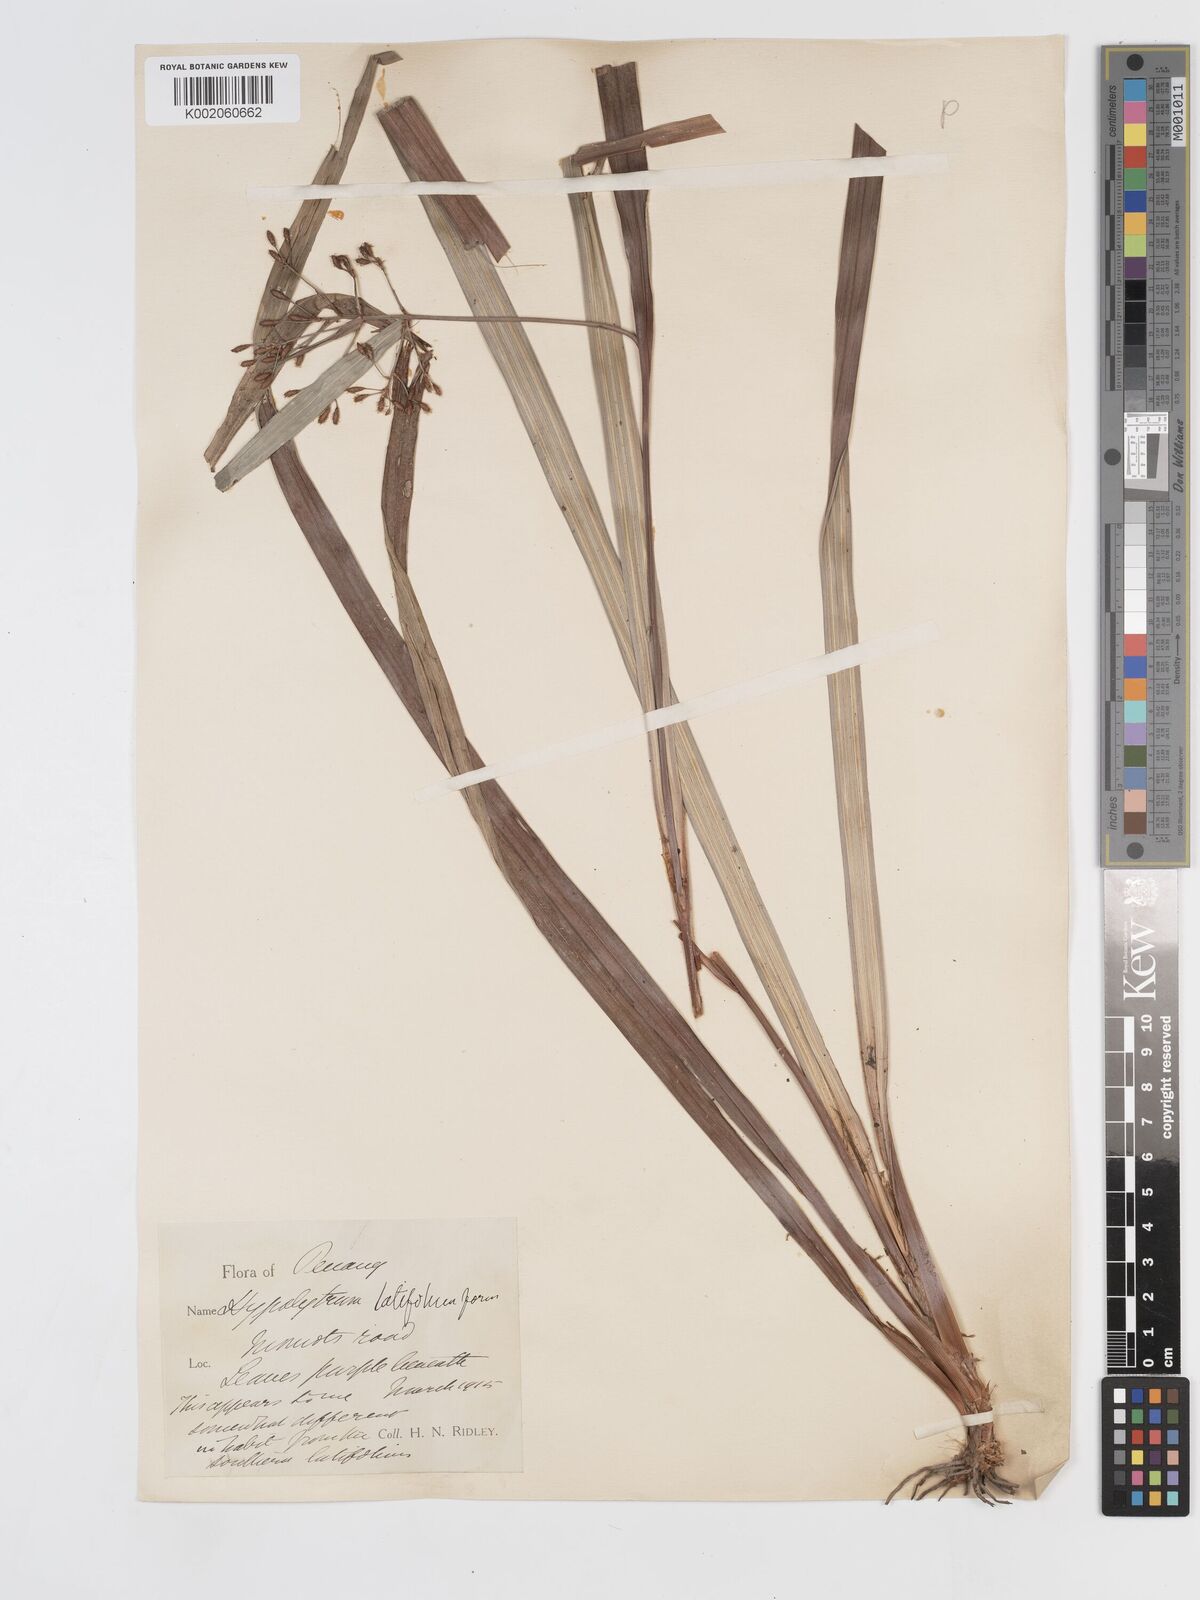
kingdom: Plantae
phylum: Tracheophyta
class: Liliopsida
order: Poales
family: Cyperaceae
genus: Hypolytrum
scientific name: Hypolytrum nemorum
